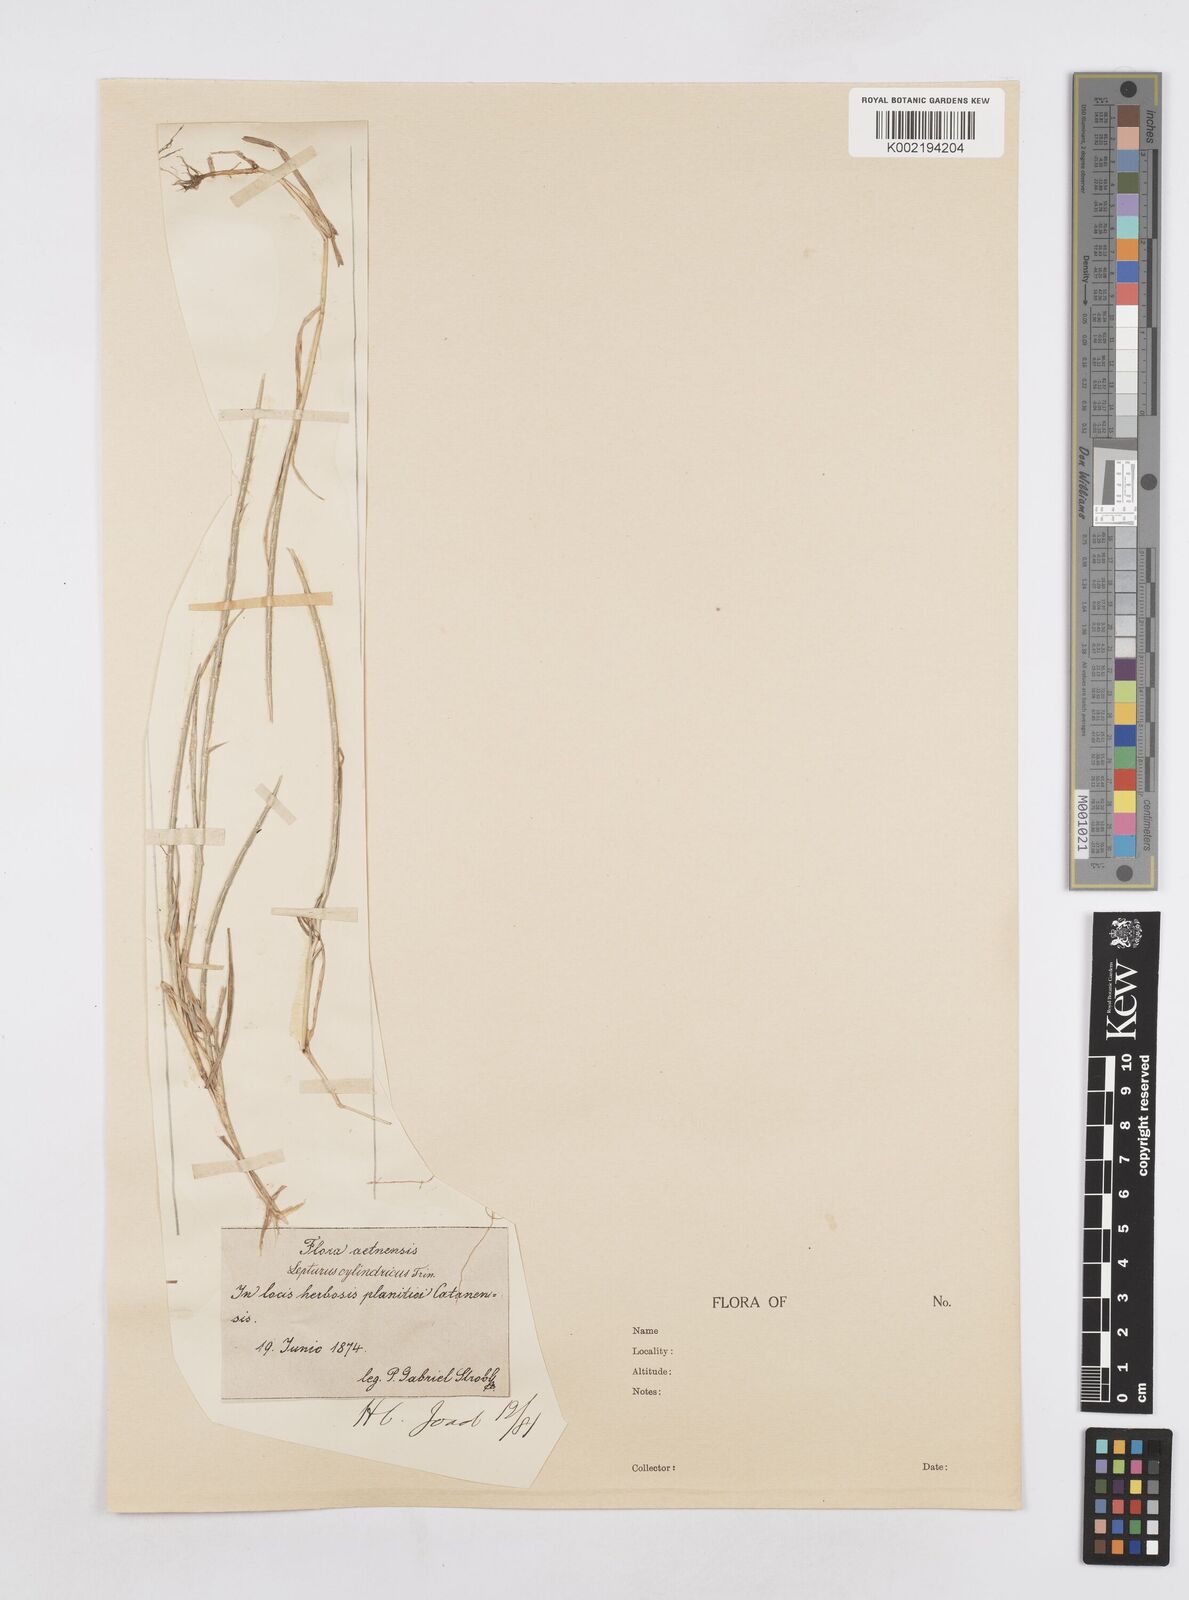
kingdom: Plantae
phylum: Tracheophyta
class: Liliopsida
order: Poales
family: Poaceae
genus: Parapholis
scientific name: Parapholis cylindrica
